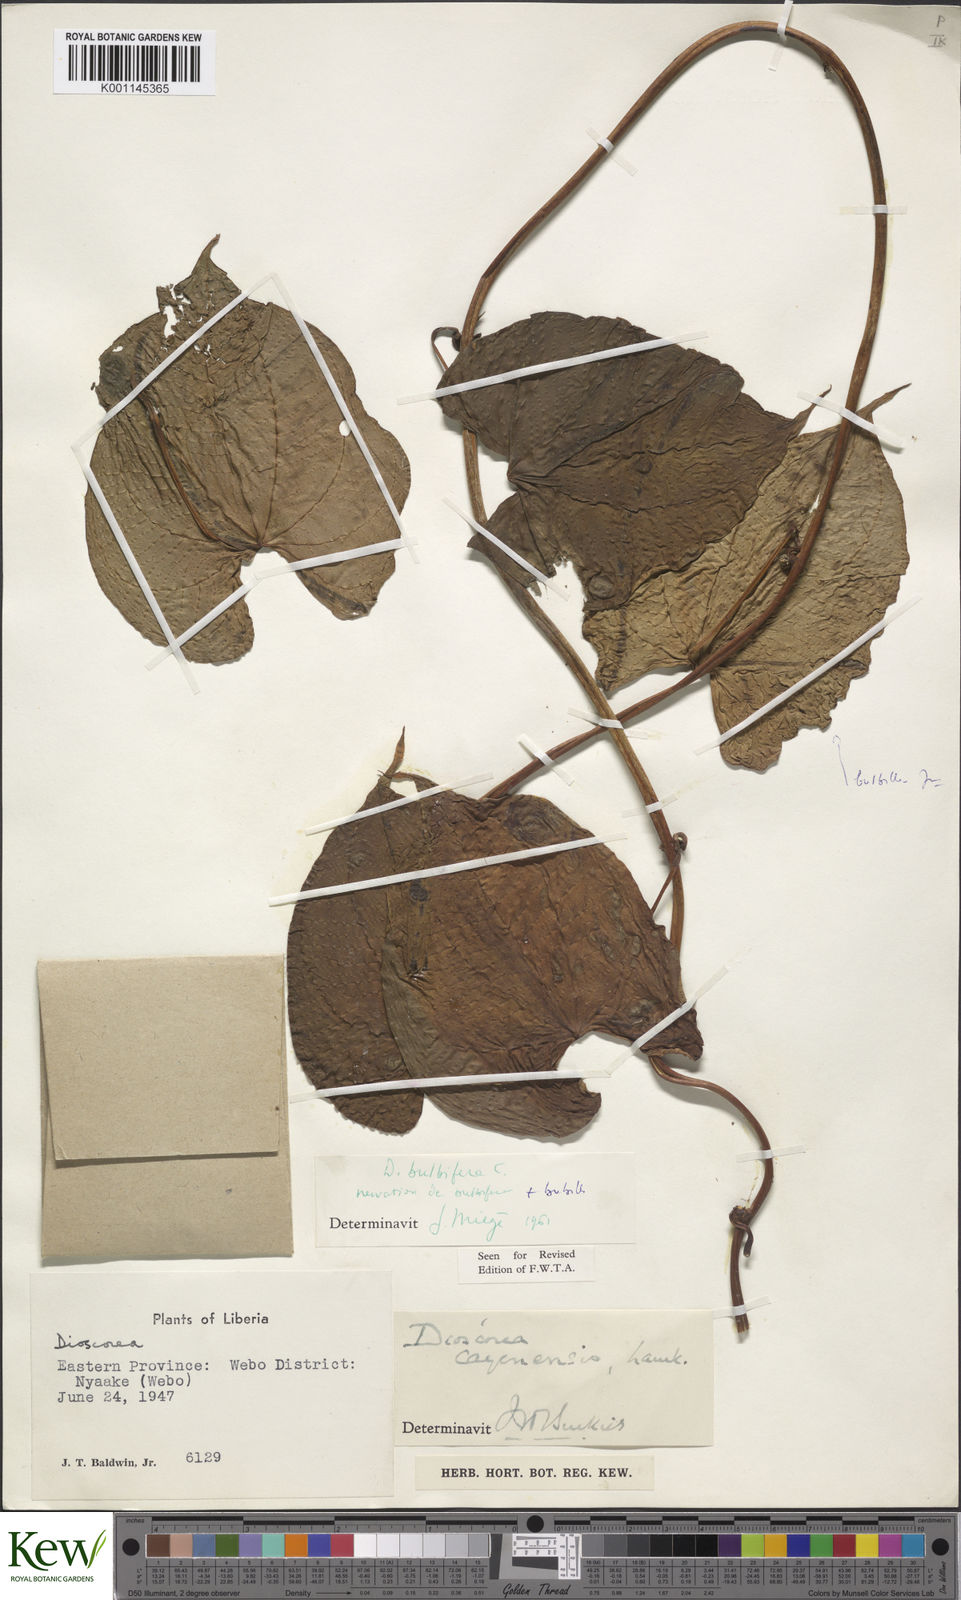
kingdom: Plantae
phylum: Tracheophyta
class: Liliopsida
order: Dioscoreales
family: Dioscoreaceae
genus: Dioscorea
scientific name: Dioscorea bulbifera
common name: Air yam
